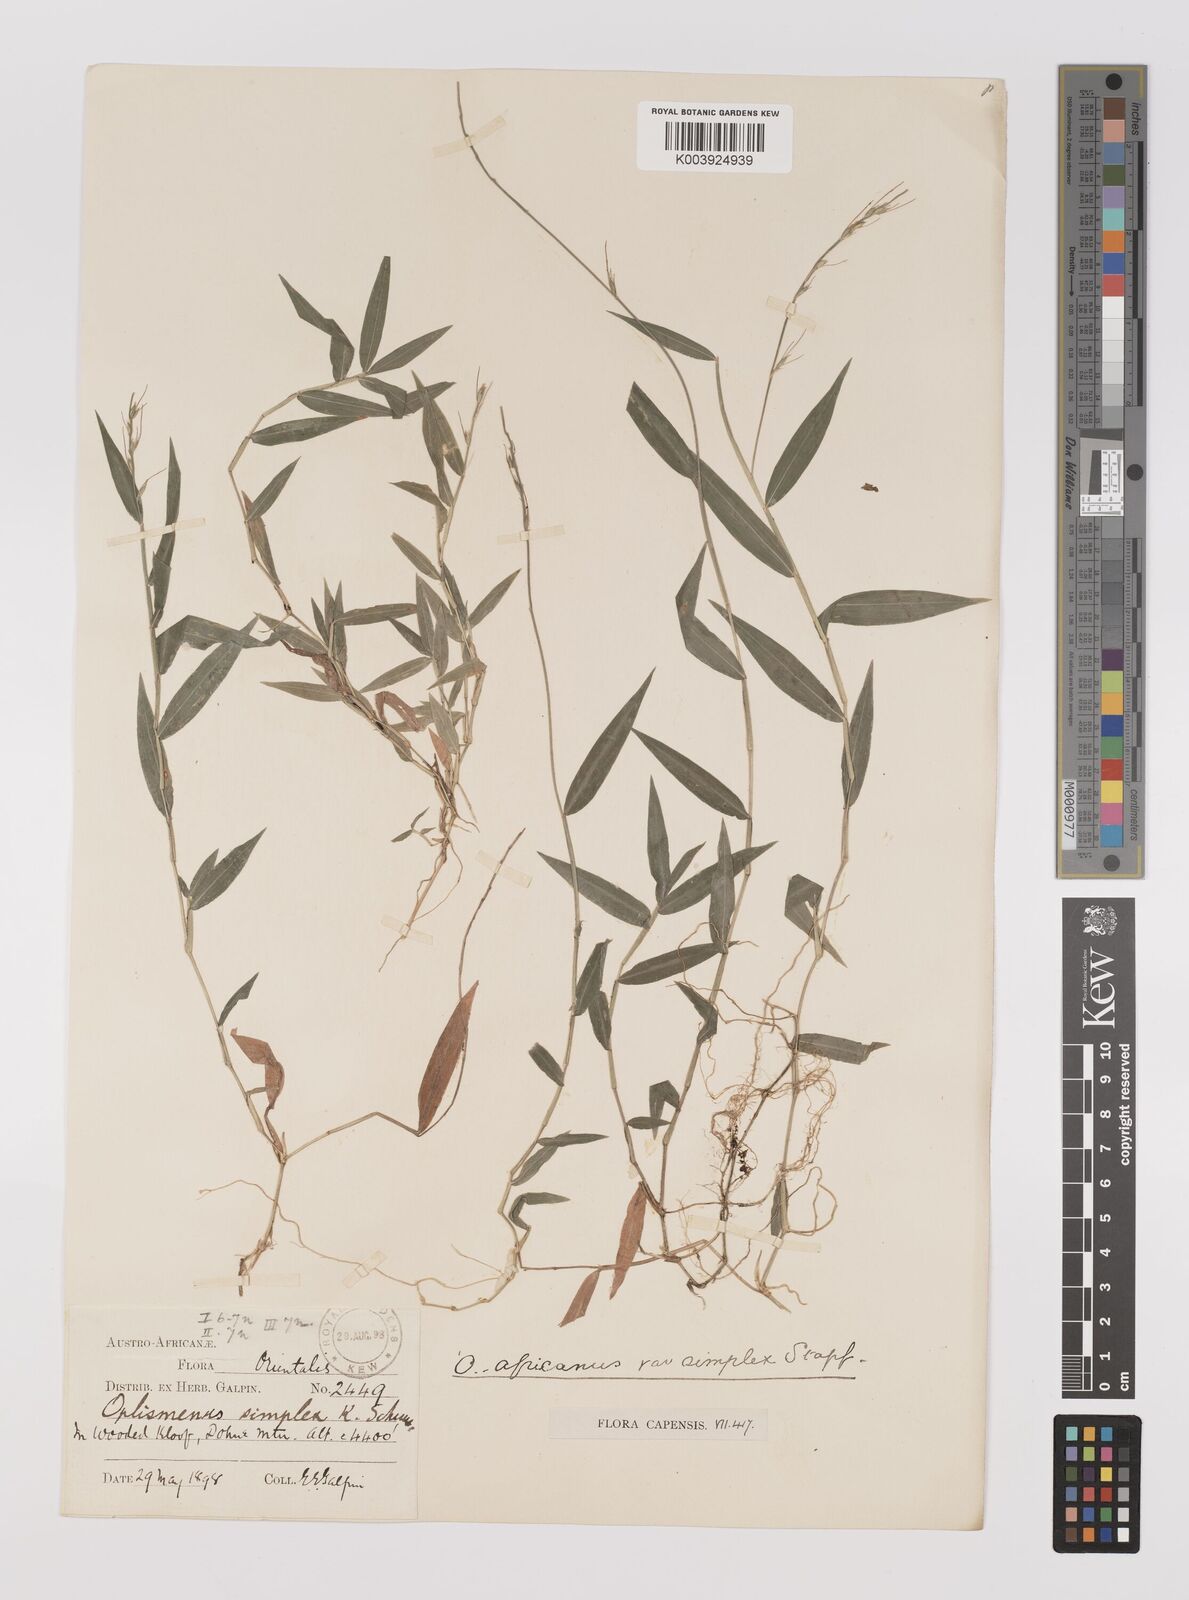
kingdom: Plantae
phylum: Tracheophyta
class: Liliopsida
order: Poales
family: Poaceae
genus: Oplismenus
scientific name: Oplismenus undulatifolius
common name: Wavyleaf basketgrass
